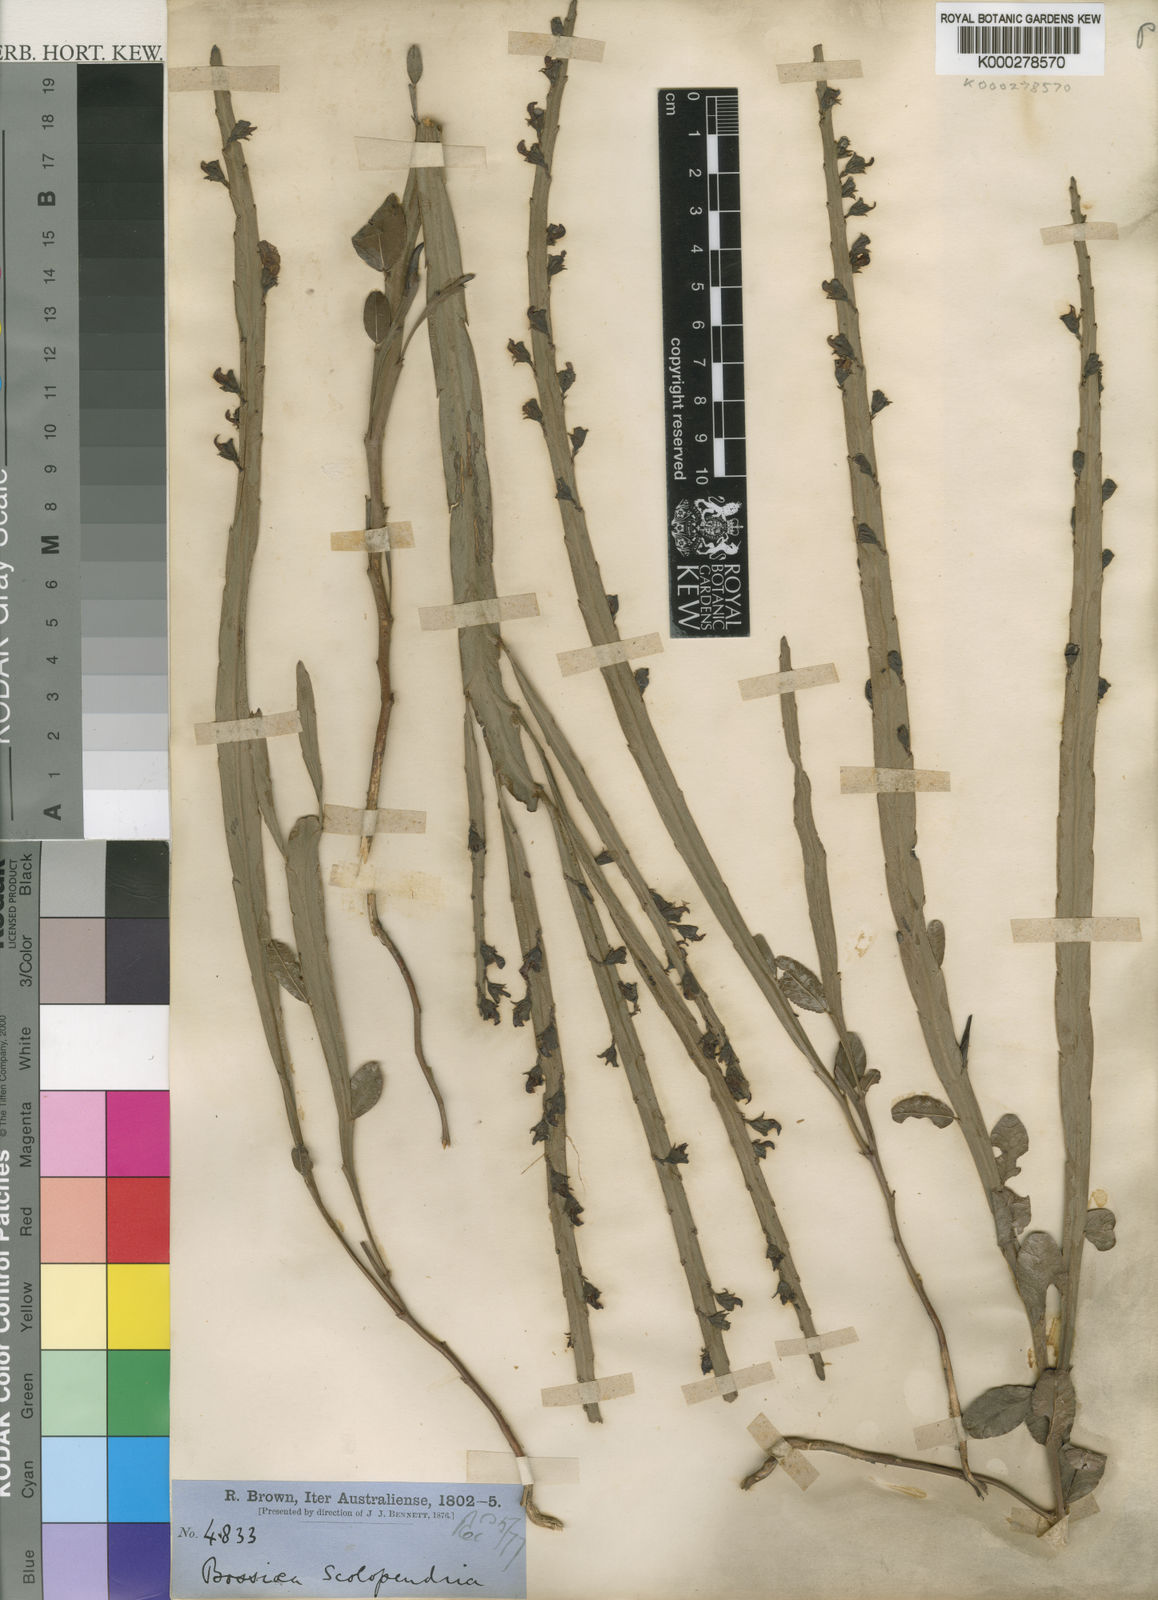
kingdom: Plantae
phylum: Tracheophyta
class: Magnoliopsida
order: Fabales
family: Fabaceae
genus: Bossiaea
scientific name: Bossiaea scolopendria
